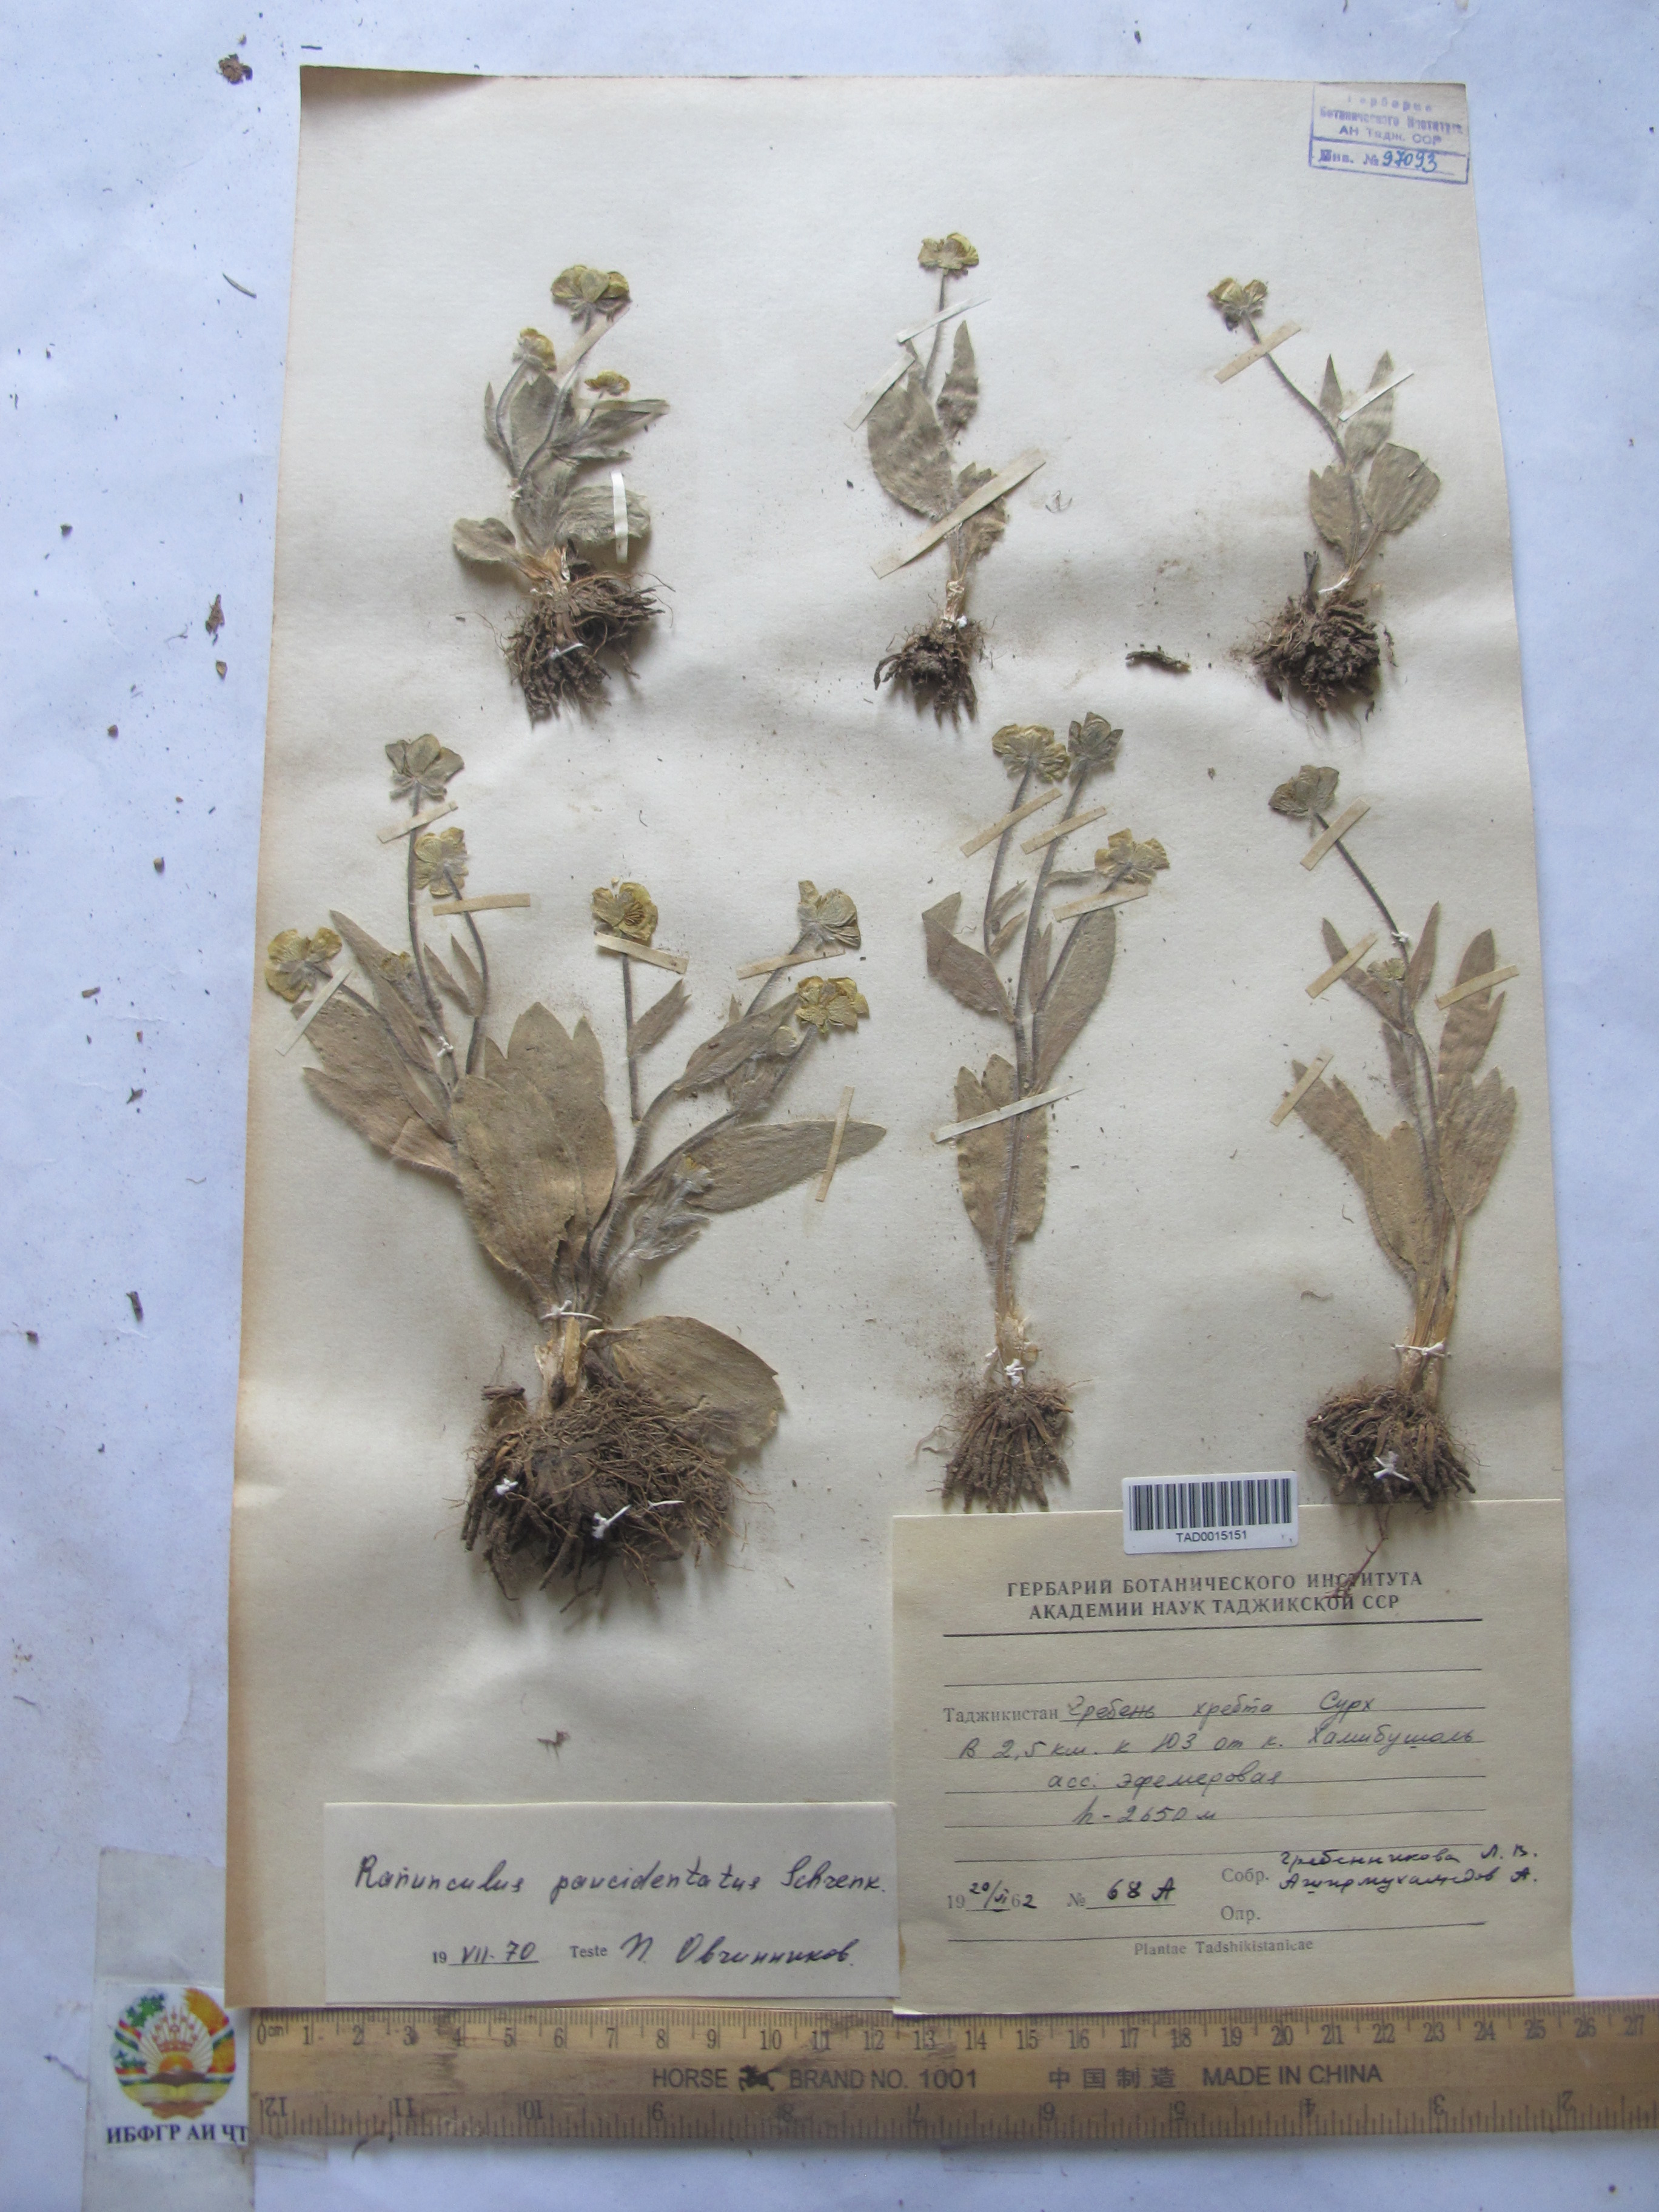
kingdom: Plantae
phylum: Tracheophyta
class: Magnoliopsida
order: Ranunculales
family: Ranunculaceae
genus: Ranunculus
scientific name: Ranunculus paucidentatus
